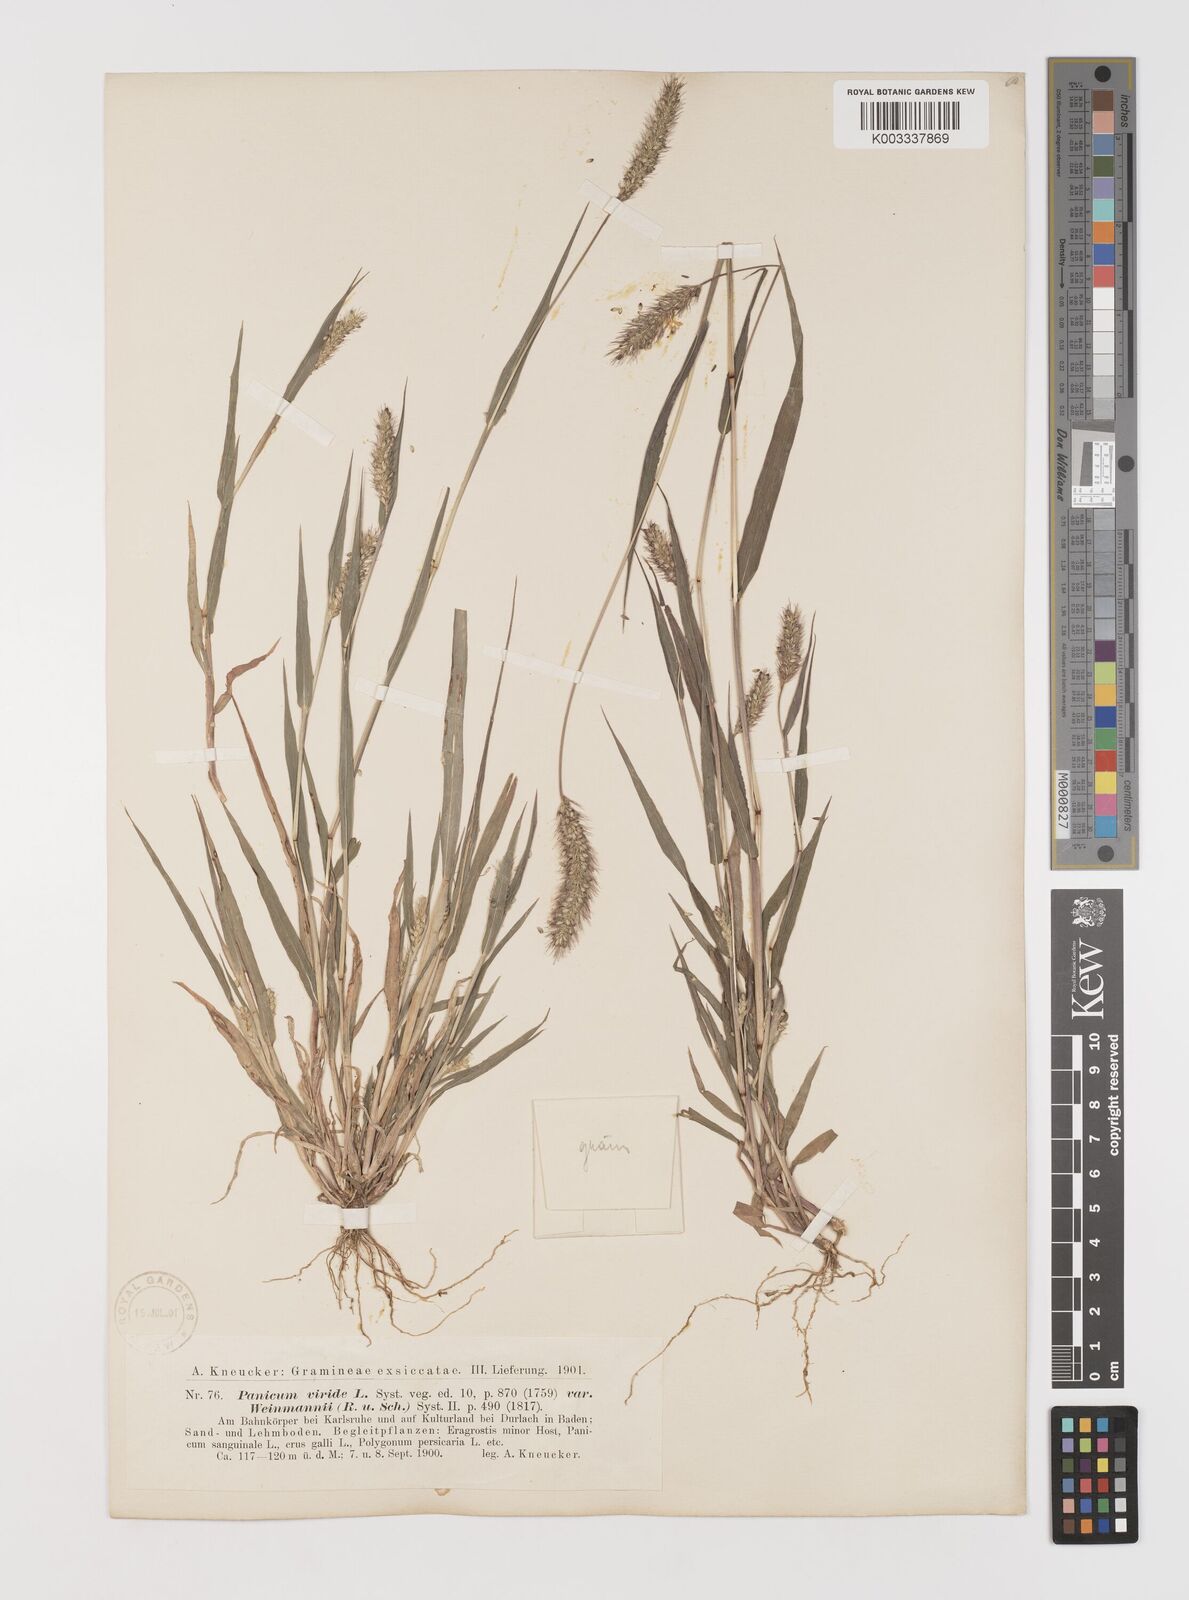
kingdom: Plantae
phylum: Tracheophyta
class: Liliopsida
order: Poales
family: Poaceae
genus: Setaria
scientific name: Setaria viridis
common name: Green bristlegrass
